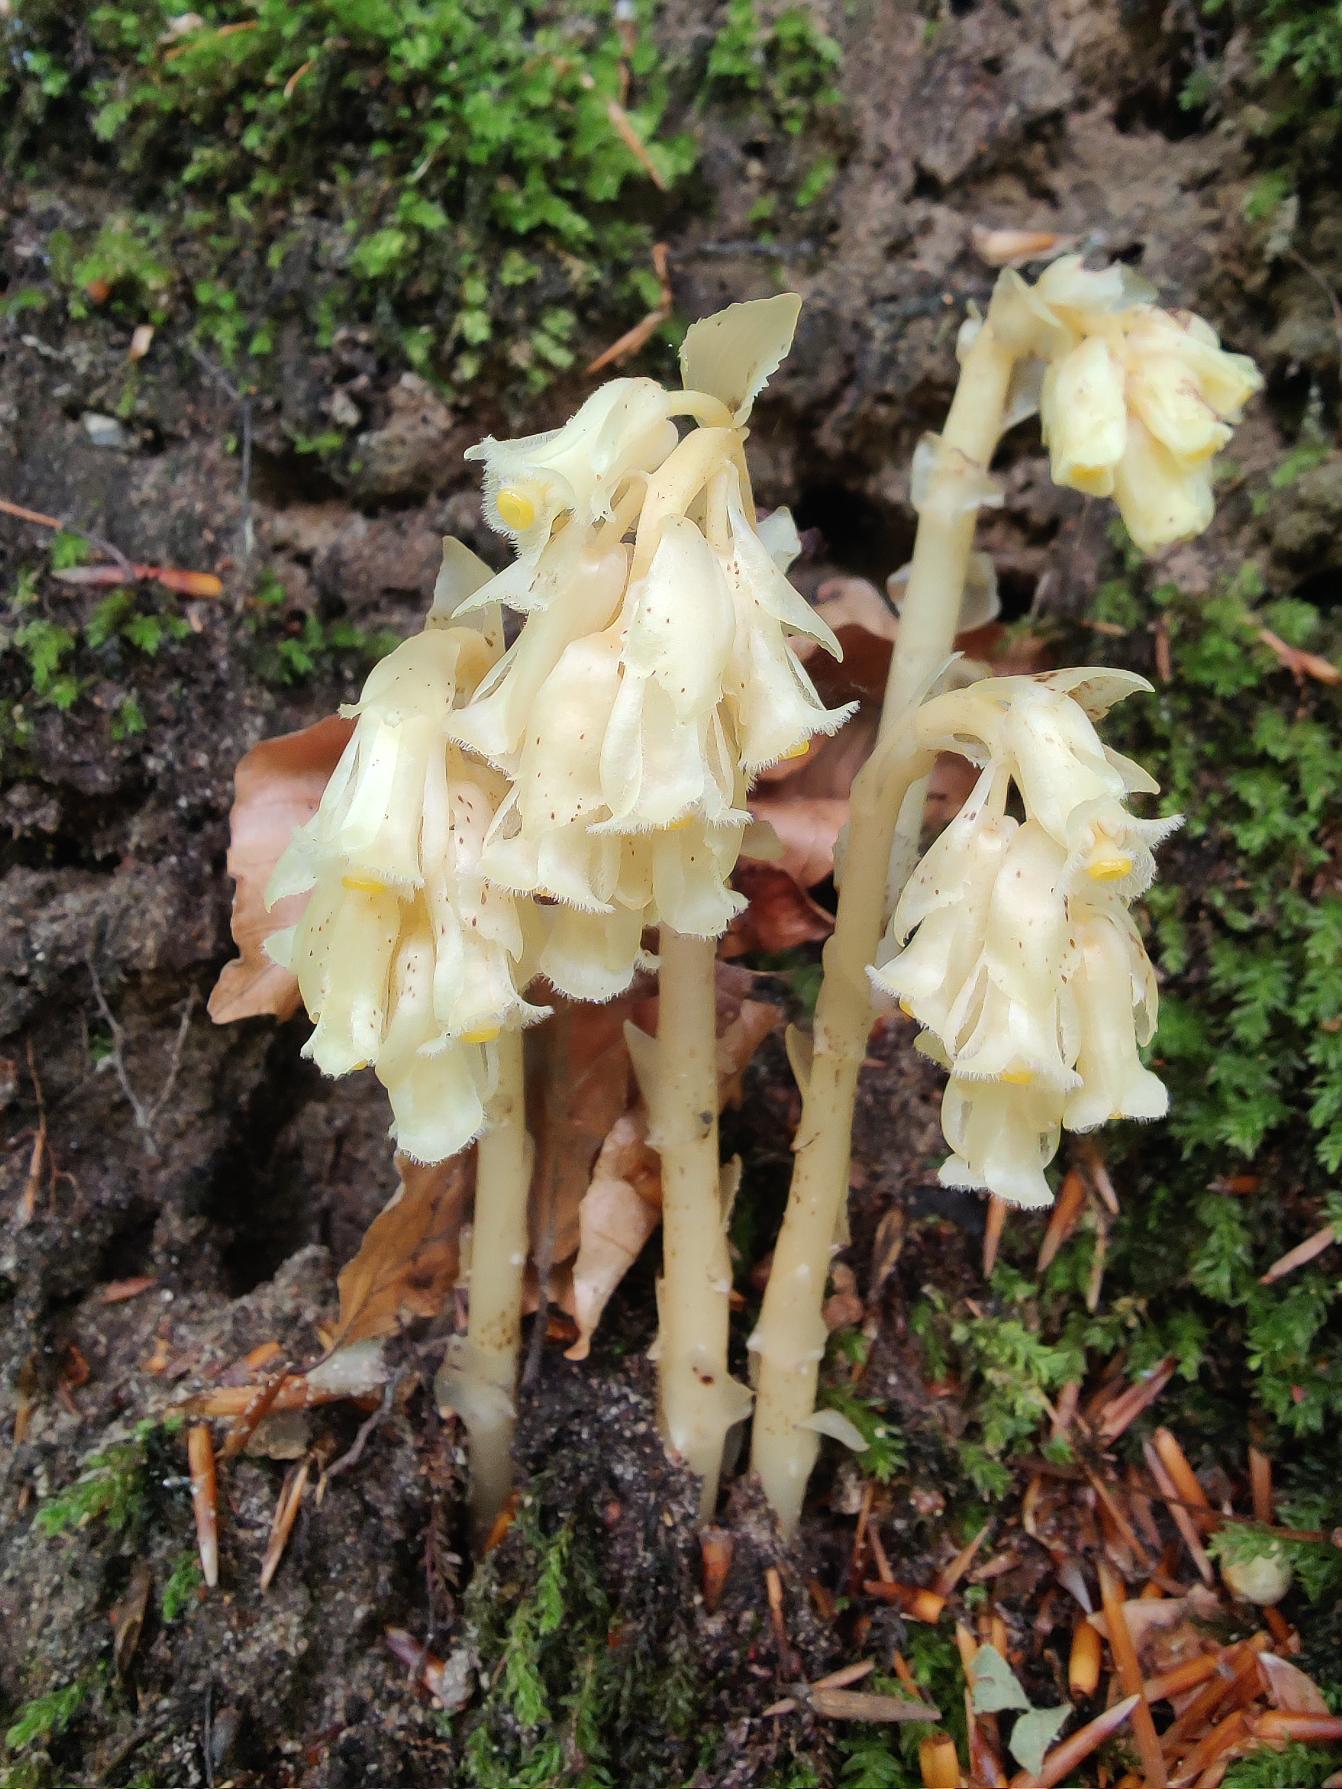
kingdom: Plantae
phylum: Tracheophyta
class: Magnoliopsida
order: Ericales
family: Ericaceae
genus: Hypopitys
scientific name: Hypopitys monotropa
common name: Snylterod
